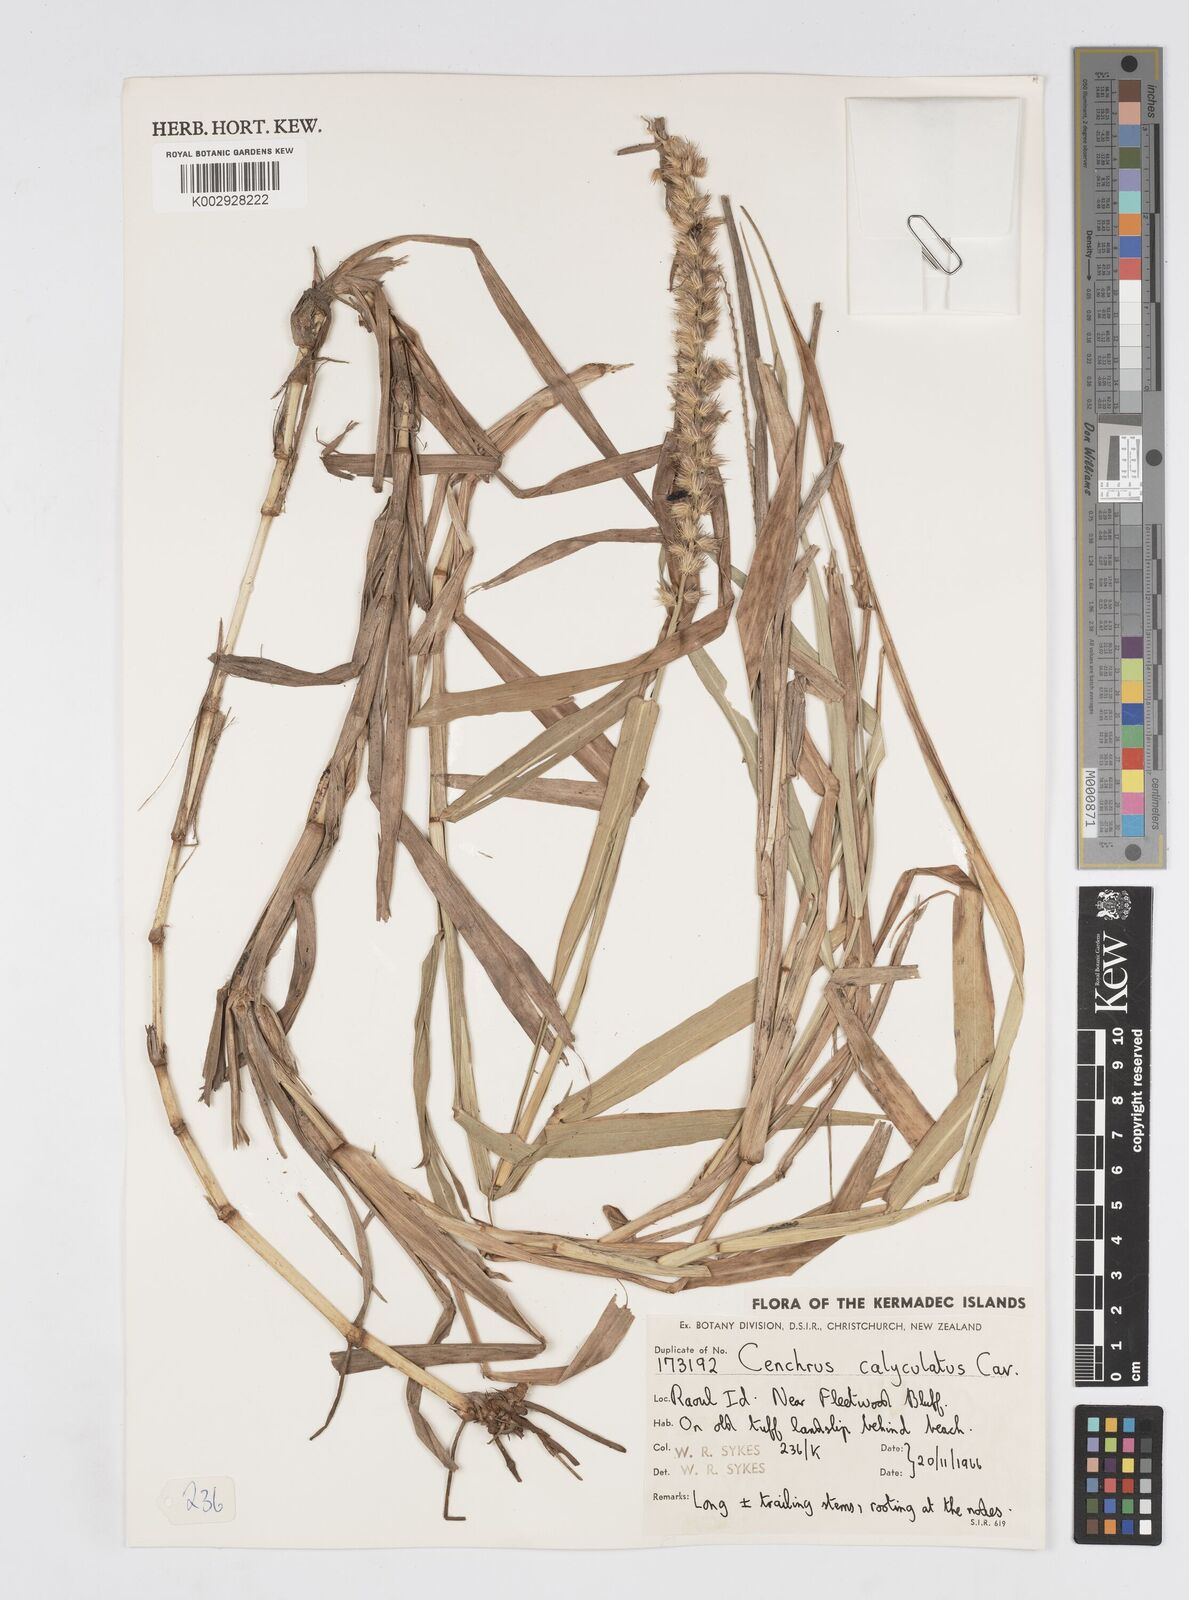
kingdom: Plantae
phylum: Tracheophyta
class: Liliopsida
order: Poales
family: Poaceae
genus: Cenchrus
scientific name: Cenchrus caliculatus
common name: Large bur grass
